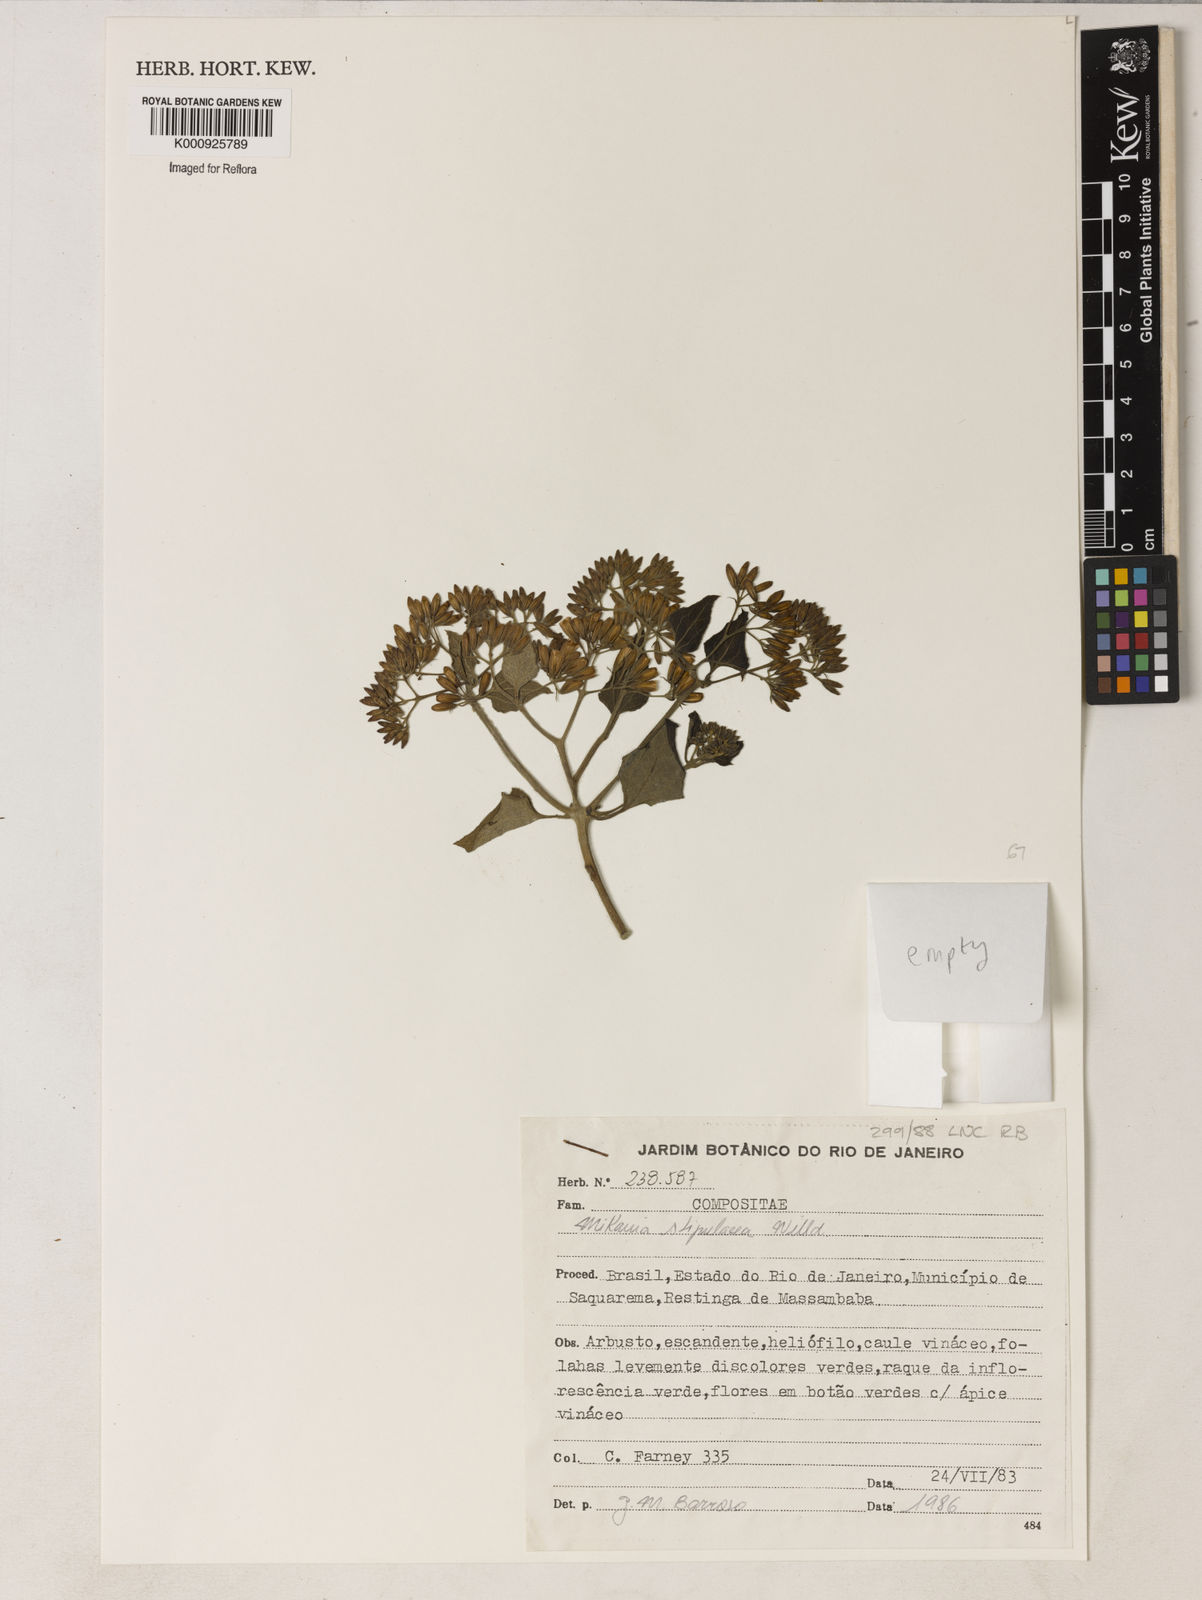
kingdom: Plantae
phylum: Tracheophyta
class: Magnoliopsida
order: Asterales
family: Asteraceae
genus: Mikania
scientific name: Mikania stipulacea
